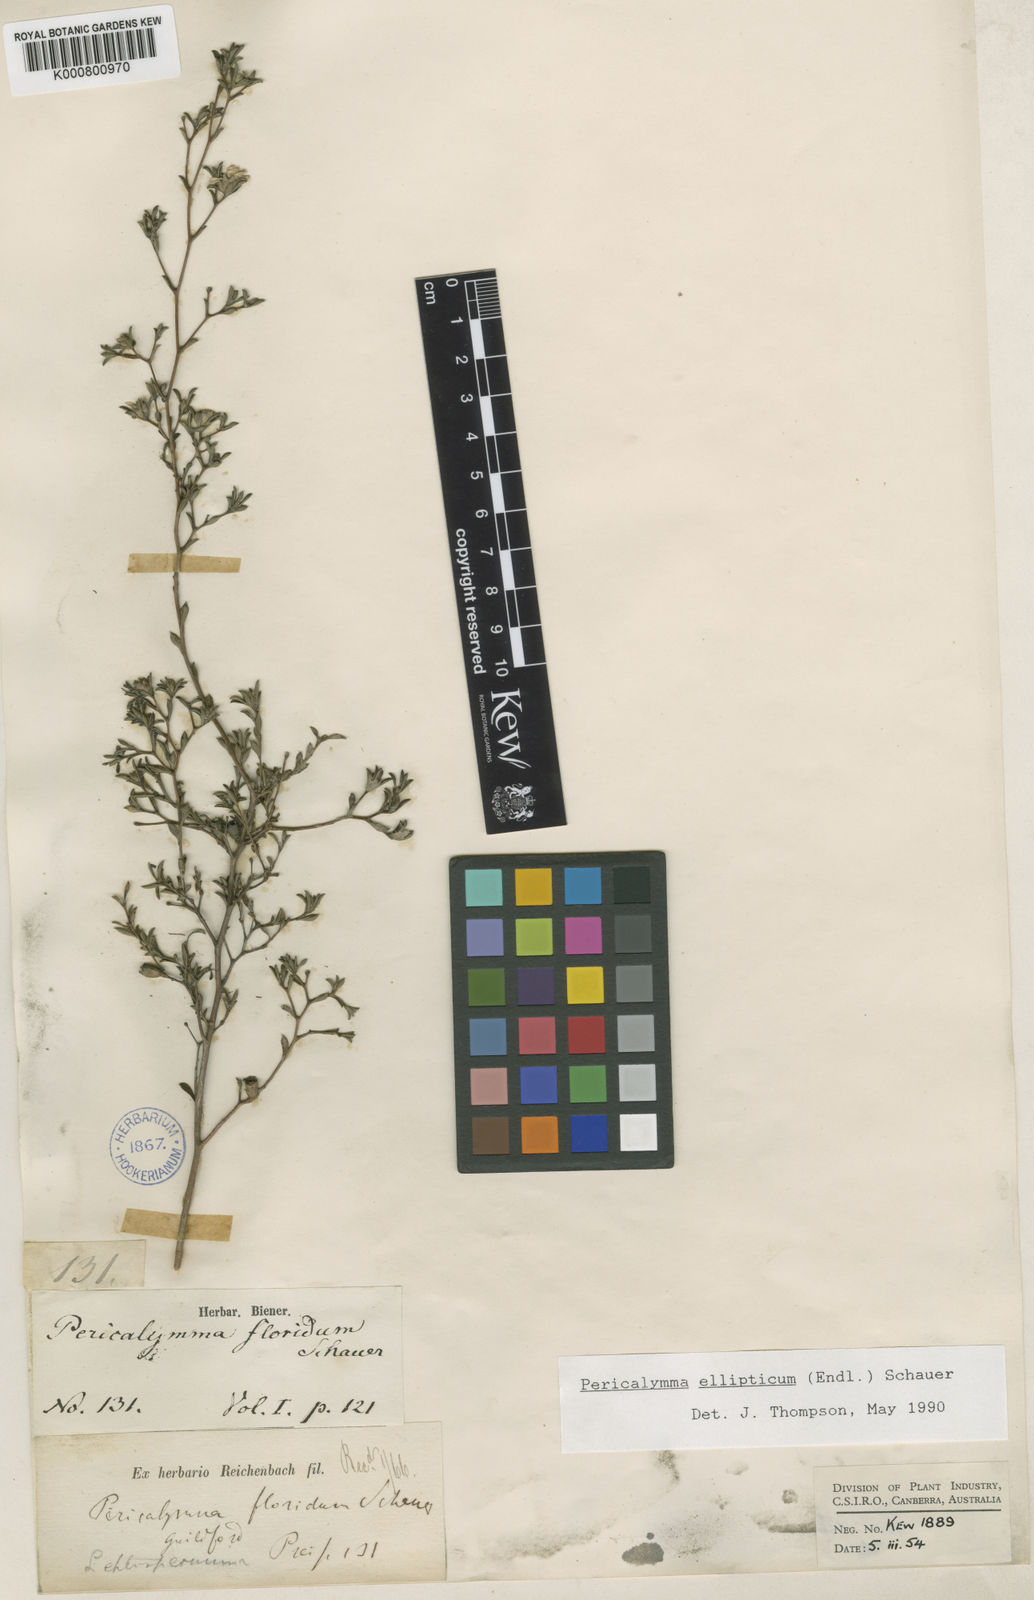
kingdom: Plantae
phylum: Tracheophyta
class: Magnoliopsida
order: Myrtales
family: Myrtaceae
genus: Pericalymma
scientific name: Pericalymma ellipticum
